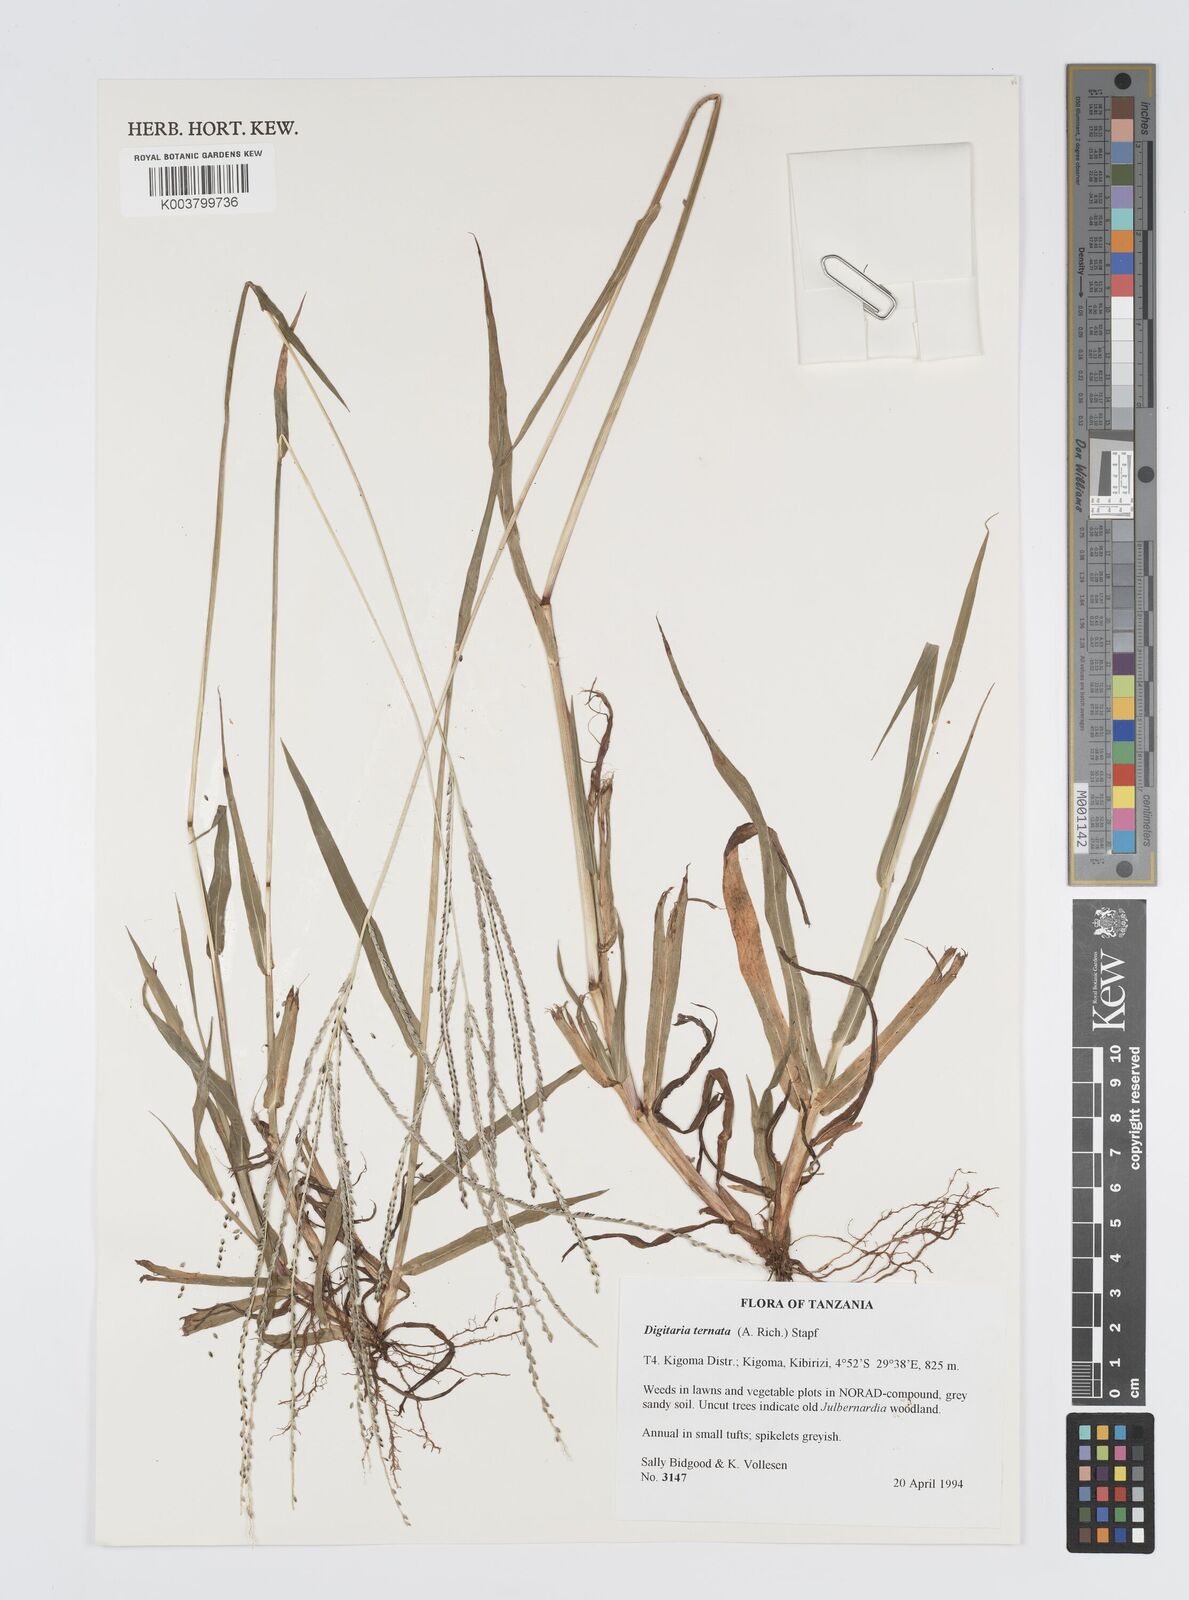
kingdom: Plantae
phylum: Tracheophyta
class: Liliopsida
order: Poales
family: Poaceae
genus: Digitaria
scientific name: Digitaria ternata
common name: Blackseed crabgrass
